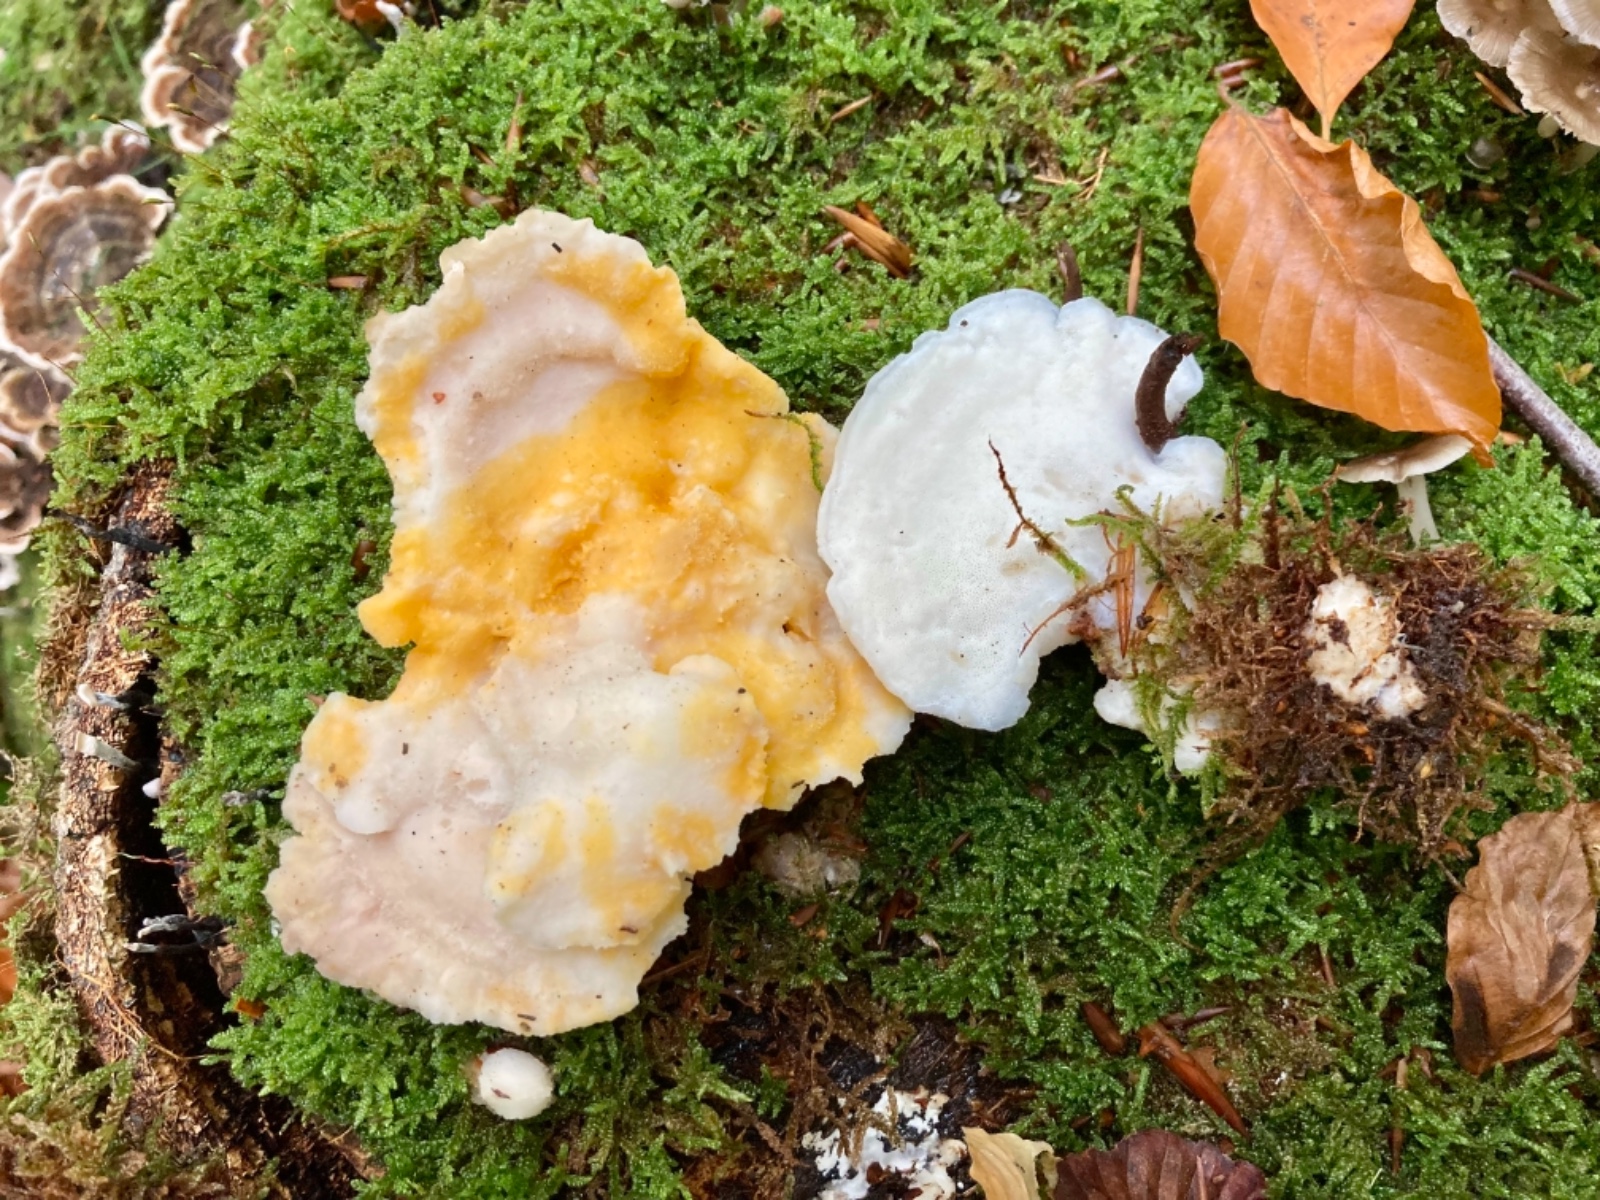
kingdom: Fungi
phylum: Ascomycota
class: Sordariomycetes
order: Hypocreales
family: Hypocreaceae
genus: Protocrea
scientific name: Protocrea pallida
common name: bleg kødkerne
